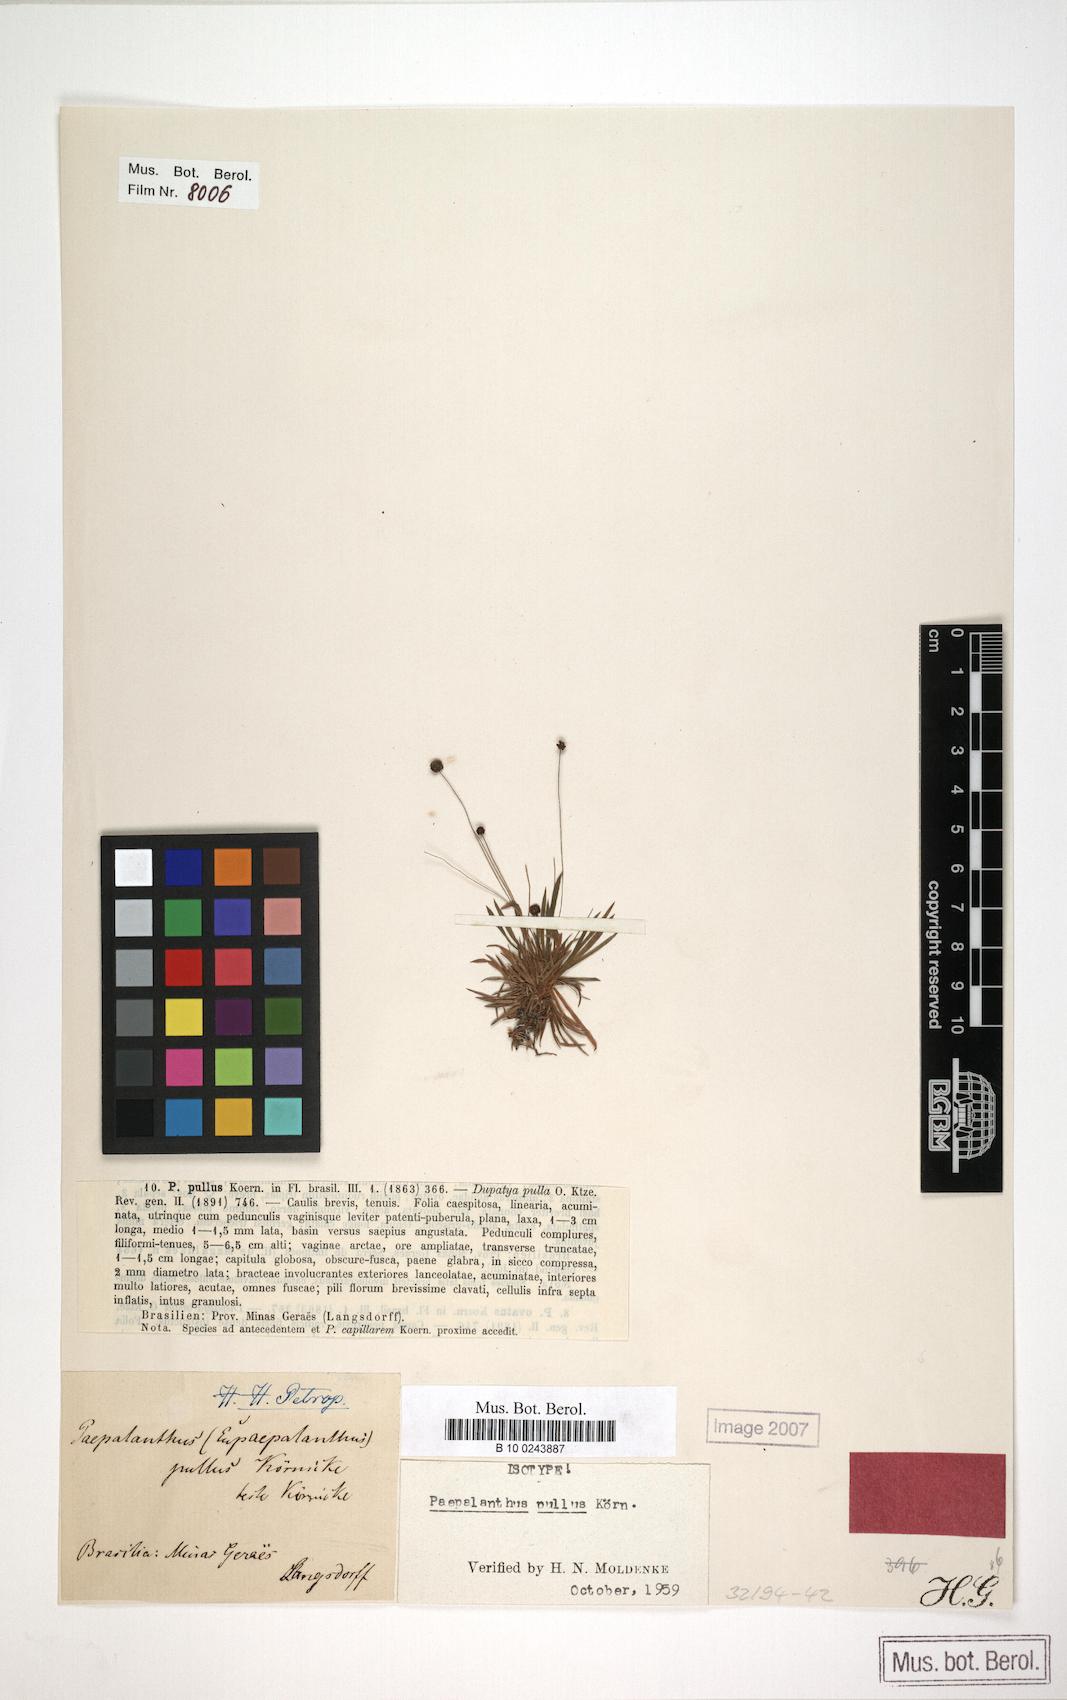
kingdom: Plantae
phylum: Tracheophyta
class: Liliopsida
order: Poales
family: Eriocaulaceae
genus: Paepalanthus
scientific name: Paepalanthus pullus
